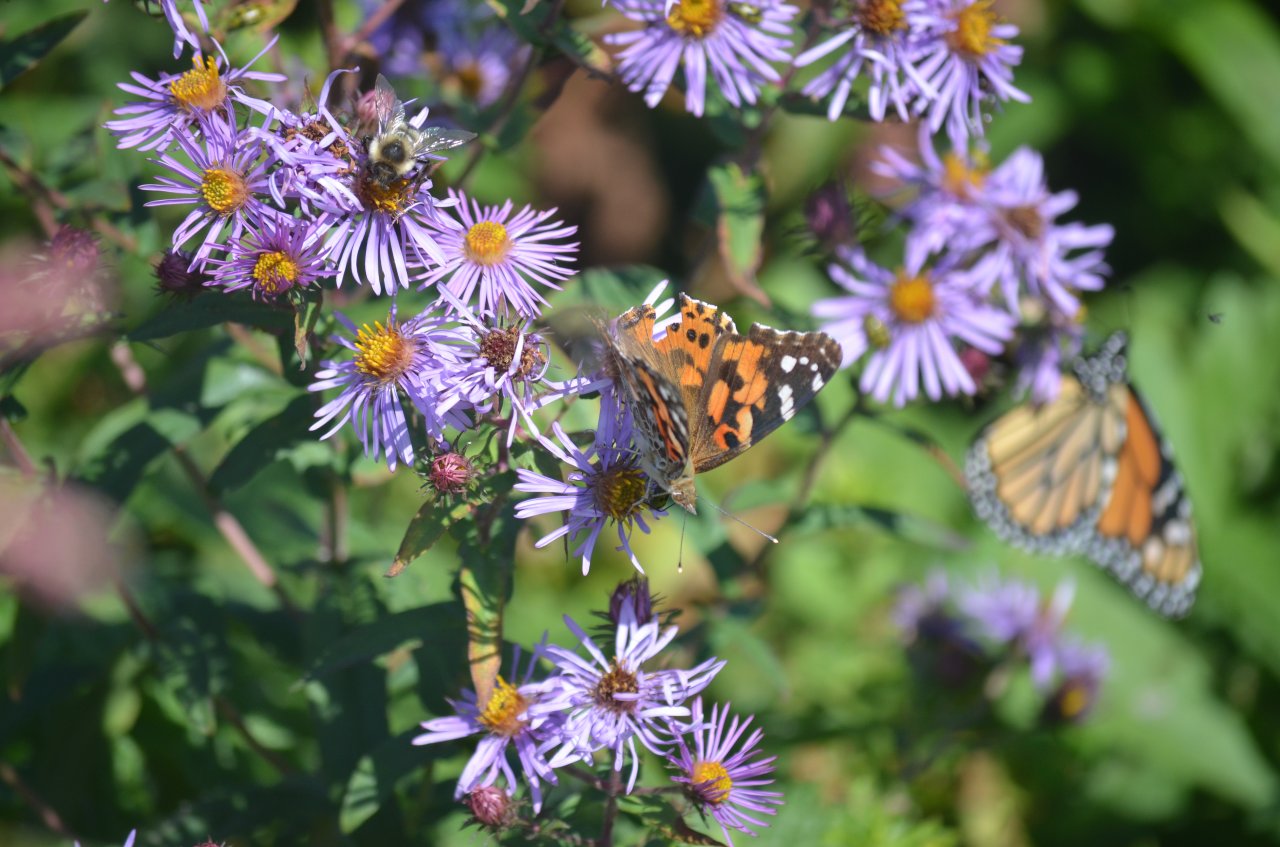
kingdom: Animalia
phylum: Arthropoda
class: Insecta
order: Lepidoptera
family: Nymphalidae
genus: Vanessa
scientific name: Vanessa cardui
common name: Painted Lady
